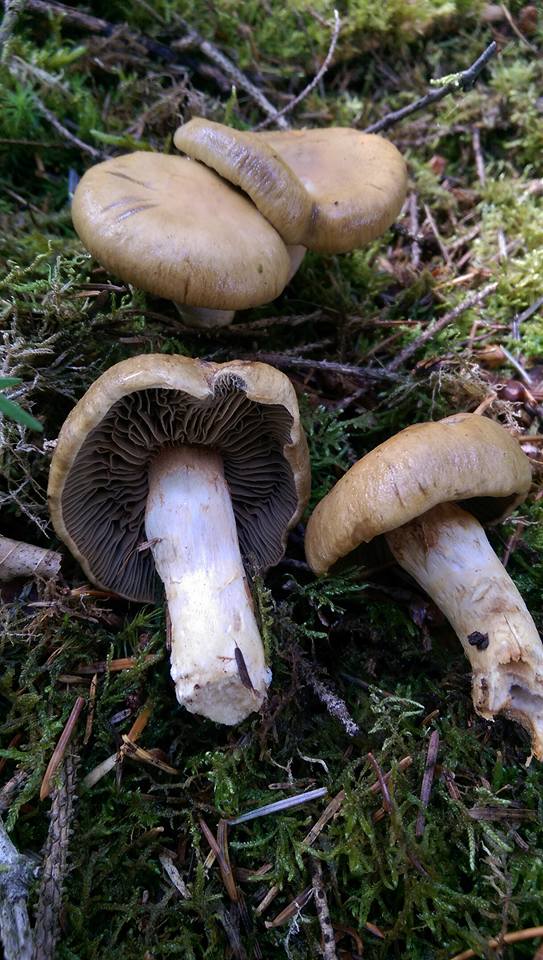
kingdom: Fungi
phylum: Basidiomycota
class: Agaricomycetes
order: Agaricales
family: Cortinariaceae
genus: Cortinarius
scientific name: Cortinarius subtortus
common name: olivengul slørhat
